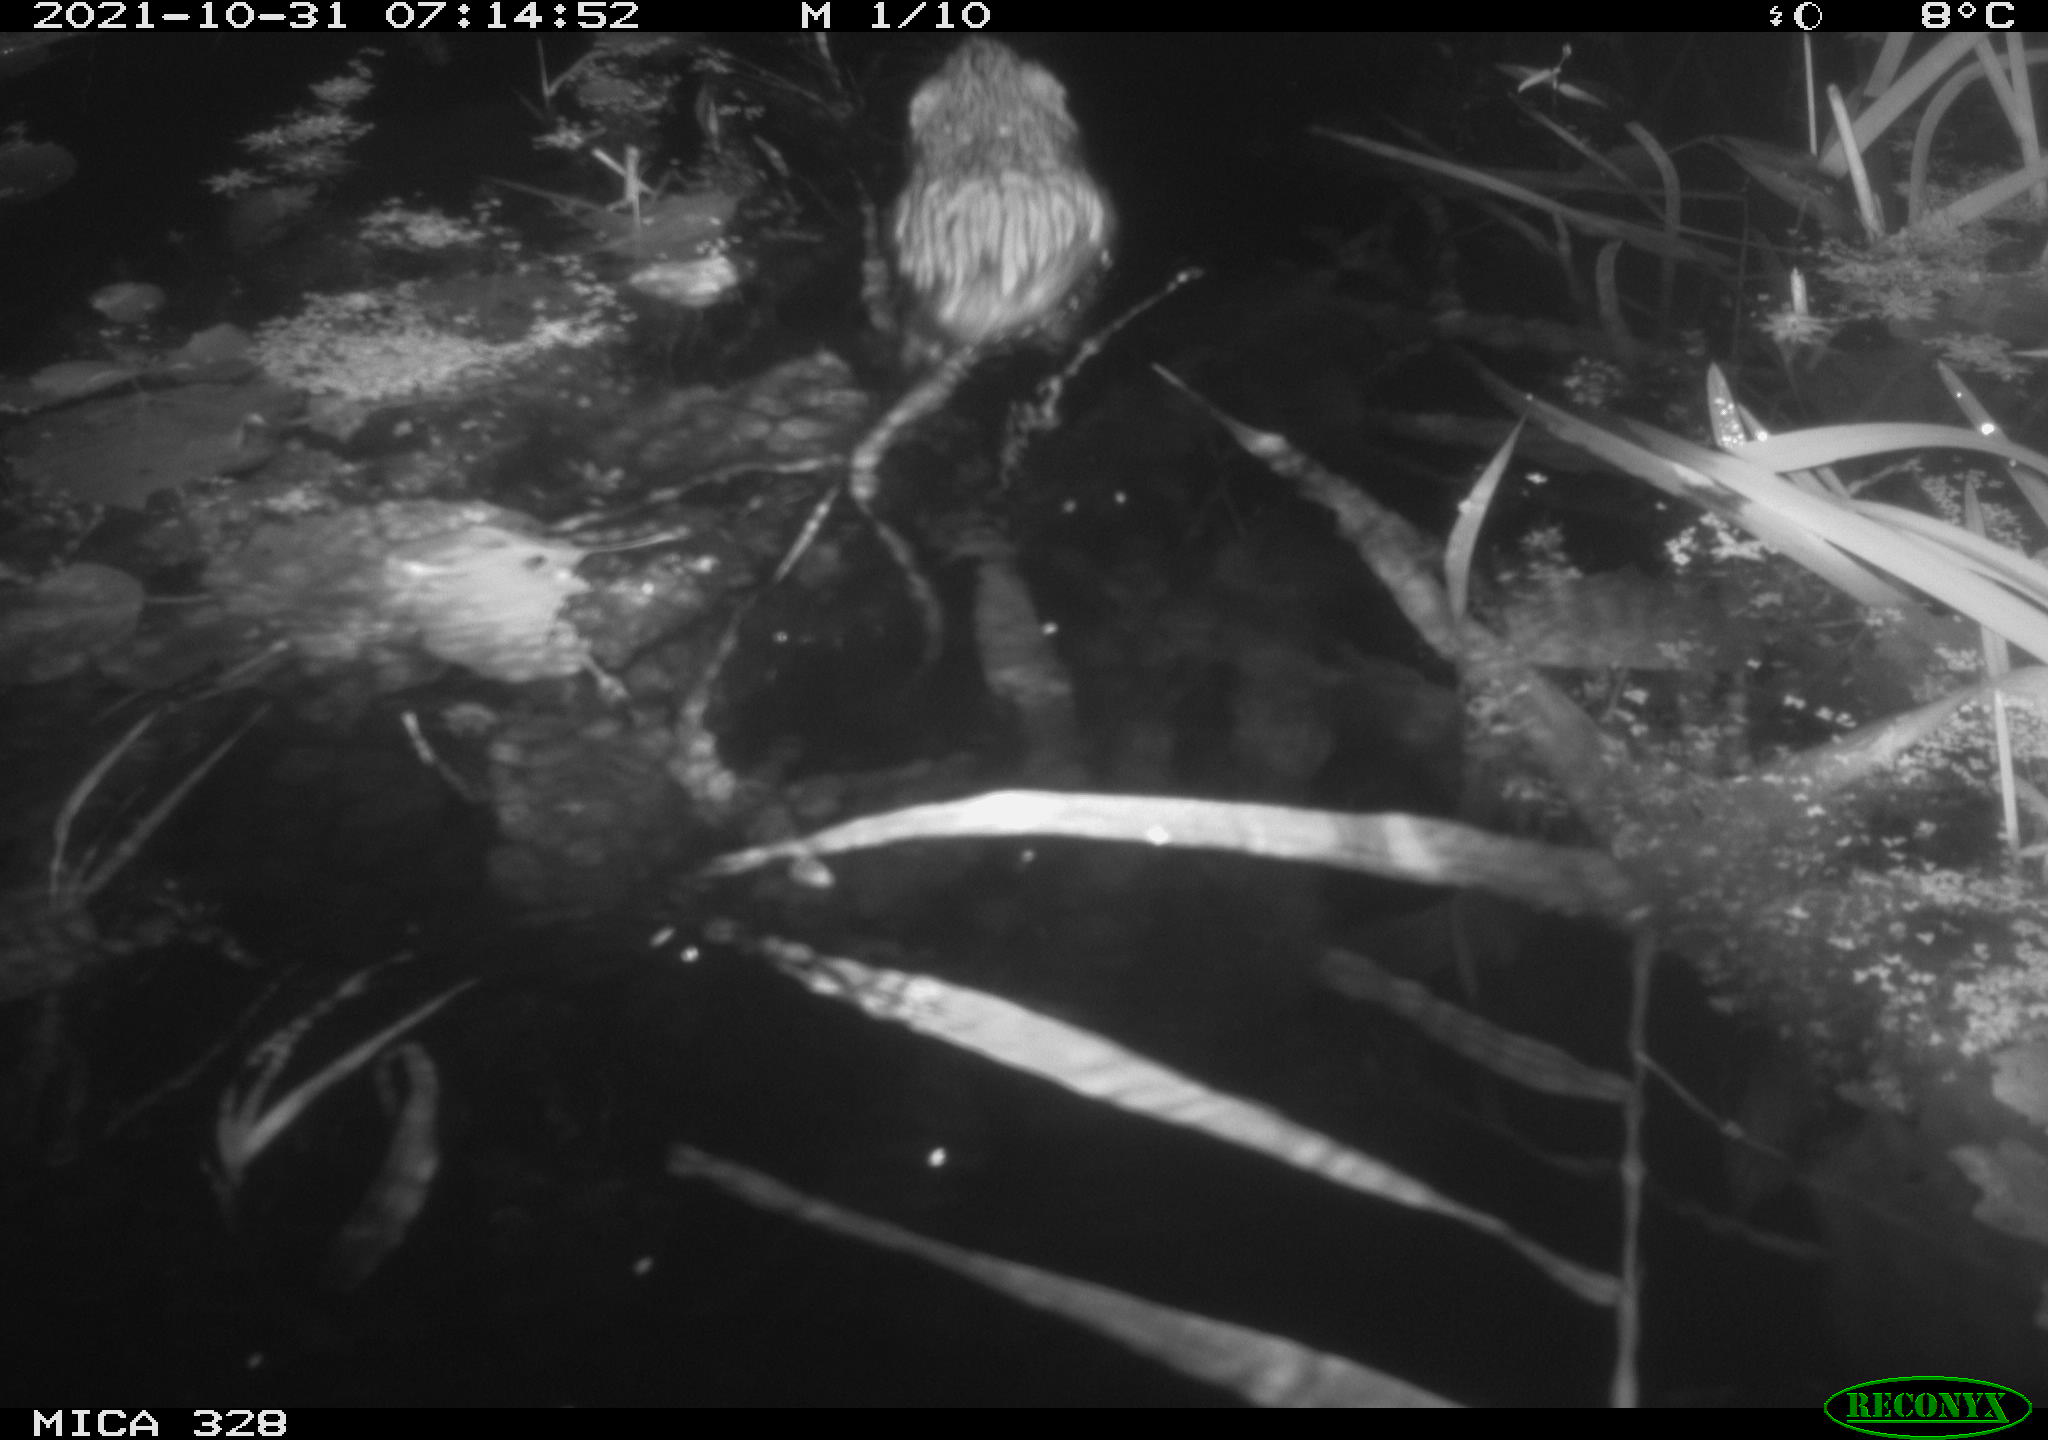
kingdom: Animalia
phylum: Chordata
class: Mammalia
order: Rodentia
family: Cricetidae
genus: Ondatra
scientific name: Ondatra zibethicus
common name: Muskrat
